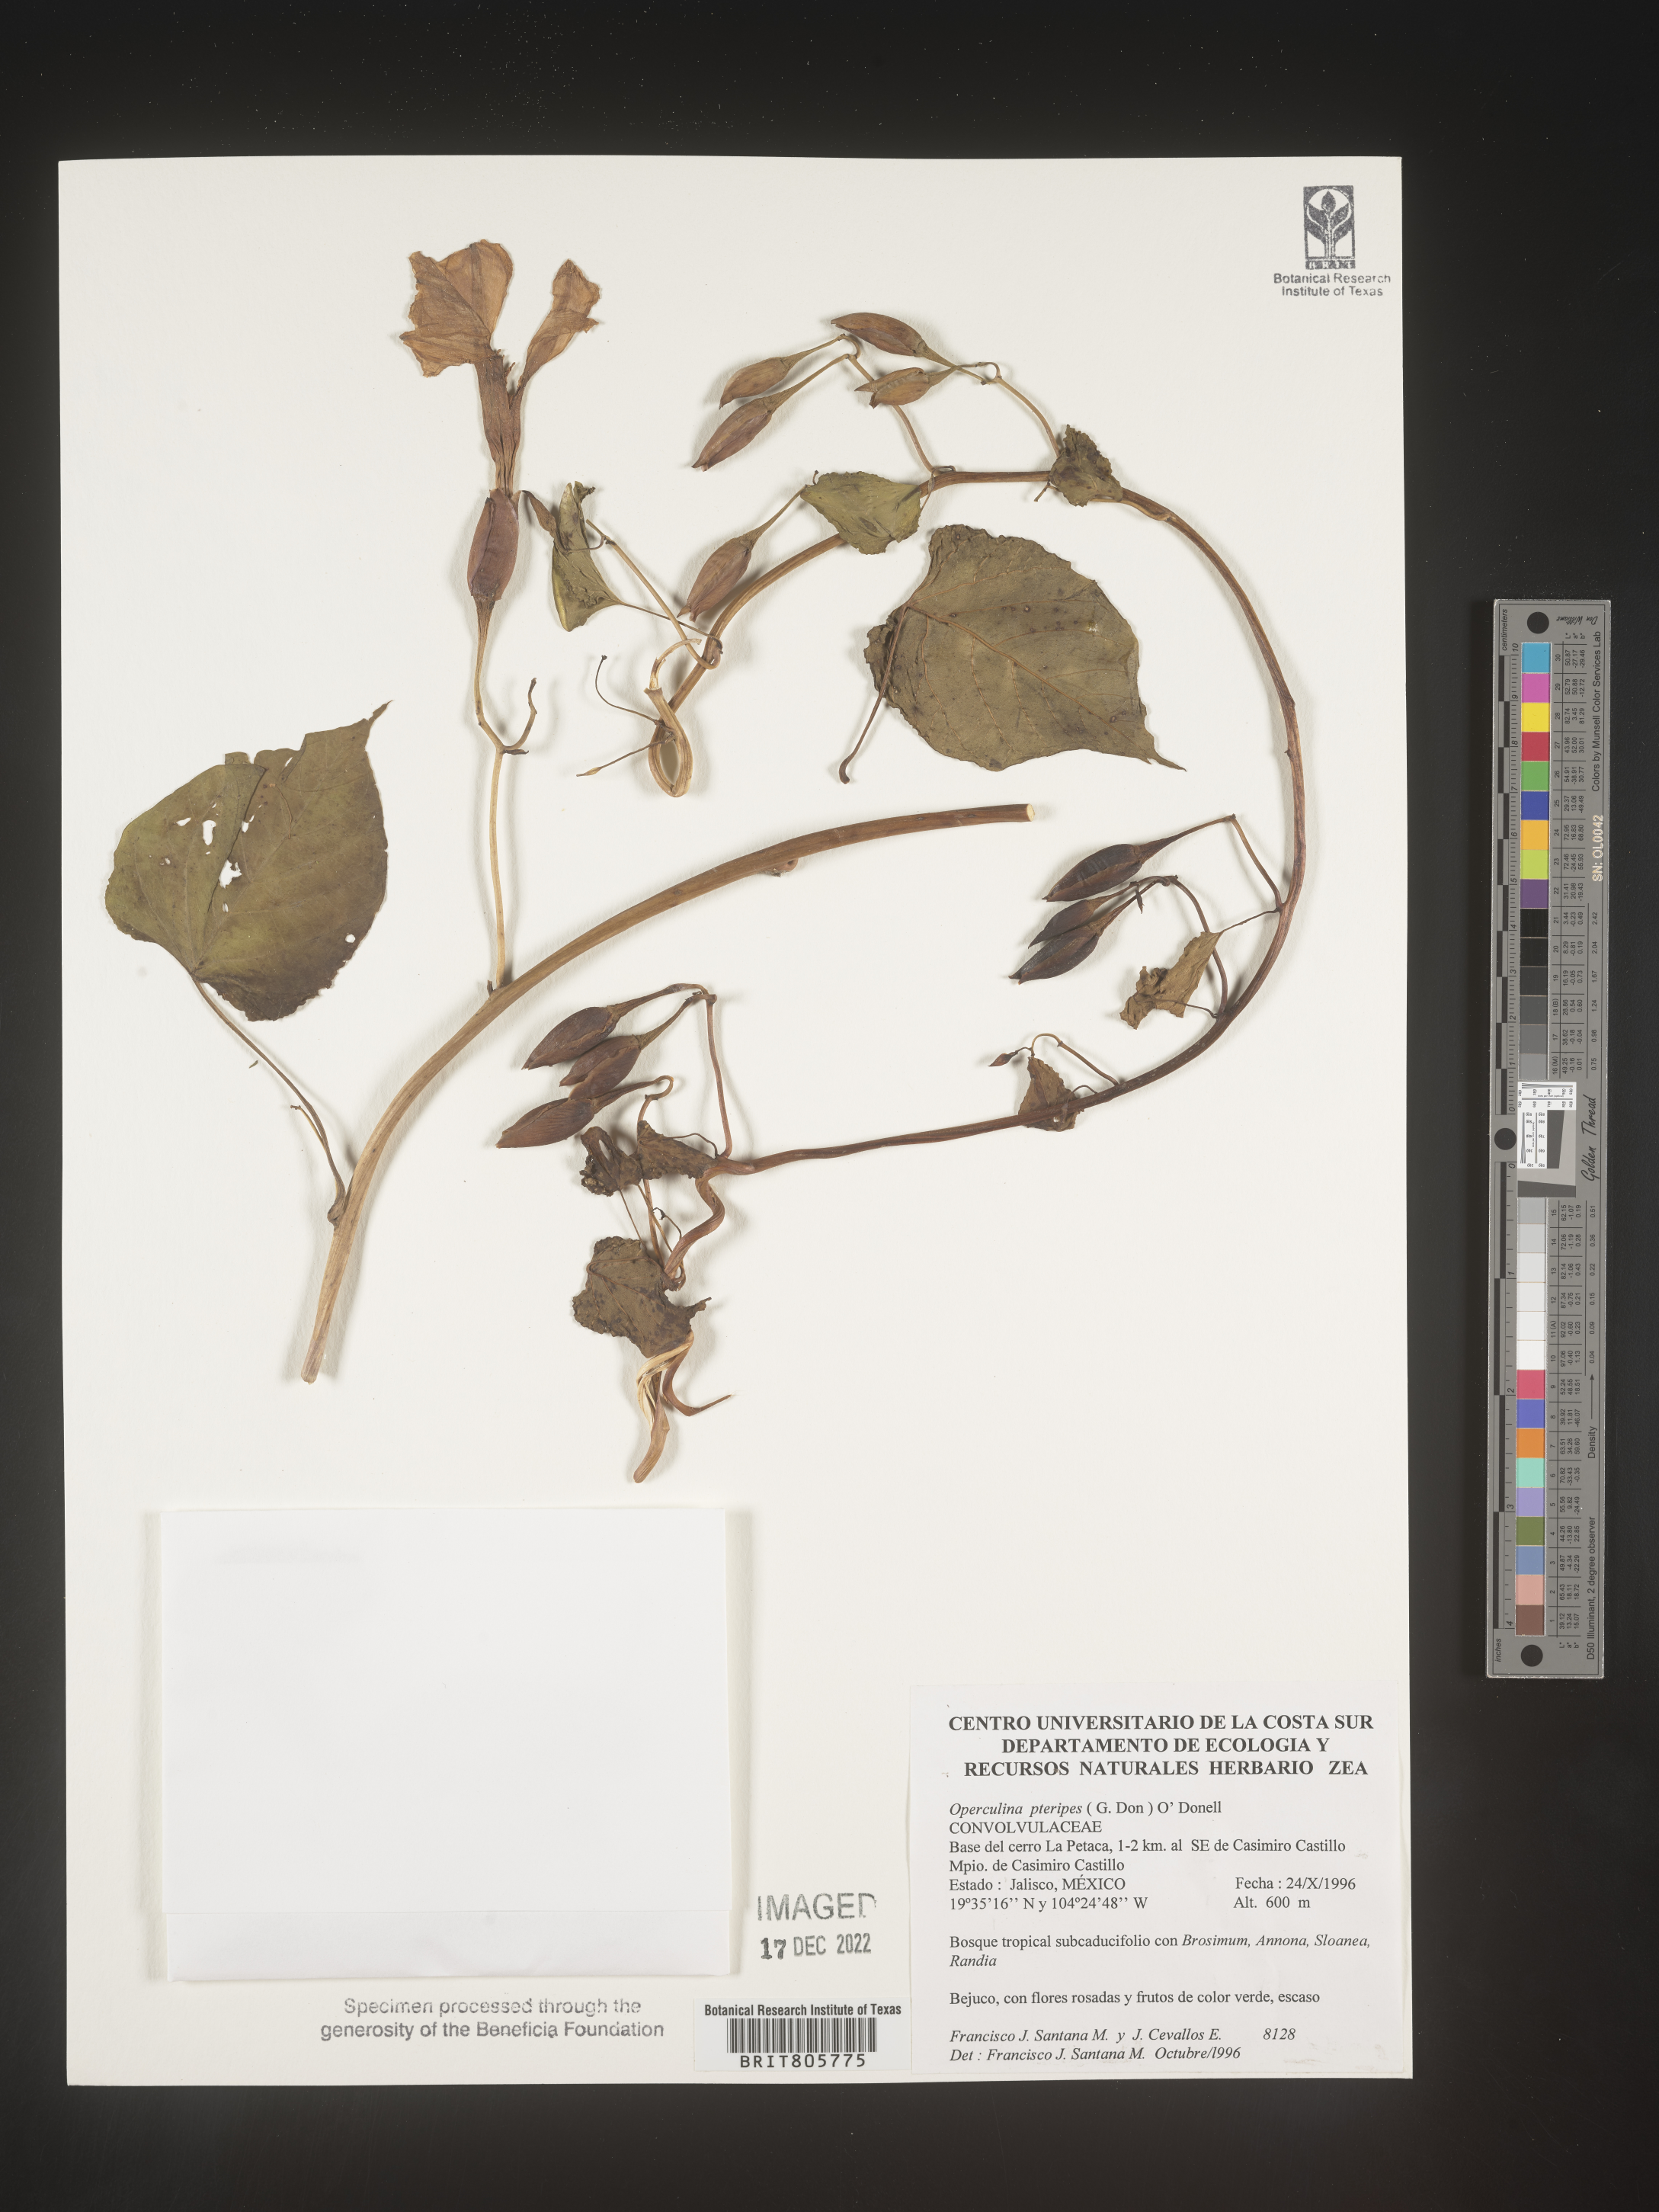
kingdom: Plantae
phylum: Tracheophyta
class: Magnoliopsida
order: Solanales
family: Convolvulaceae
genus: Operculina
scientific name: Operculina
